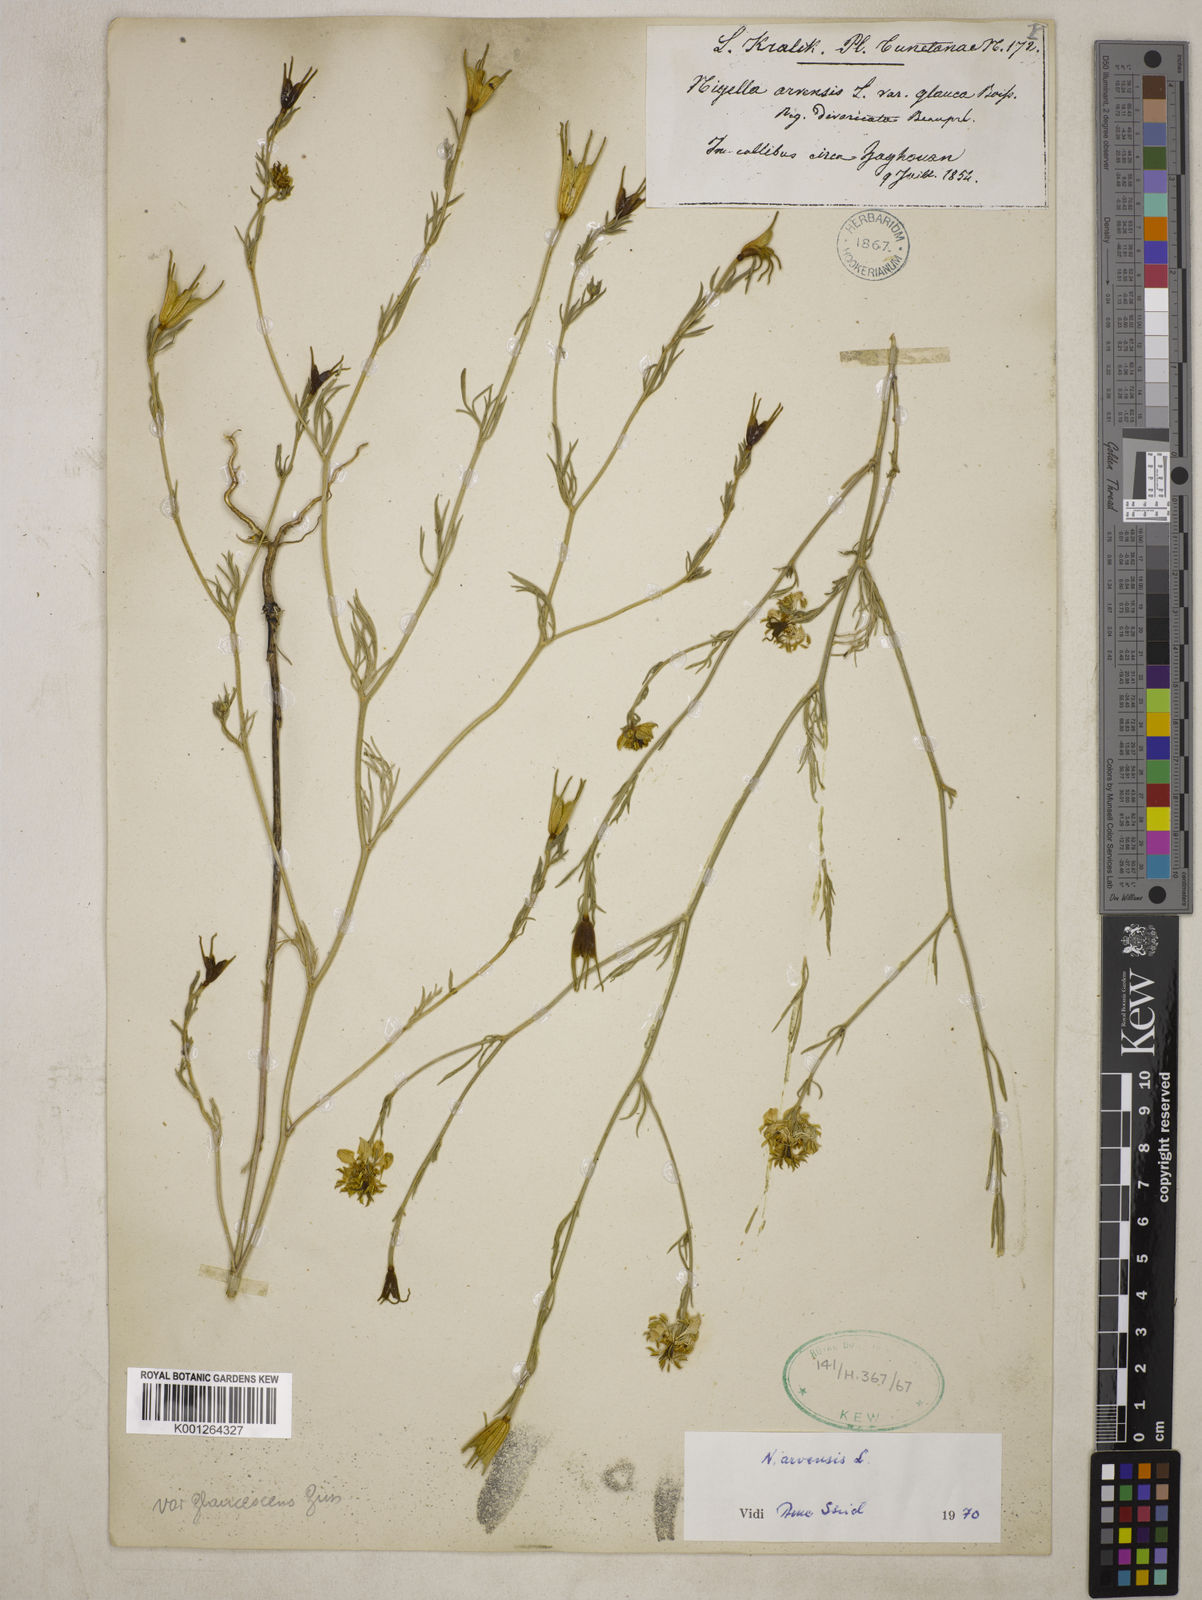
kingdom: Plantae
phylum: Tracheophyta
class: Magnoliopsida
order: Ranunculales
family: Ranunculaceae
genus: Nigella
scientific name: Nigella arvensis
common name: Wild fennel-flower
